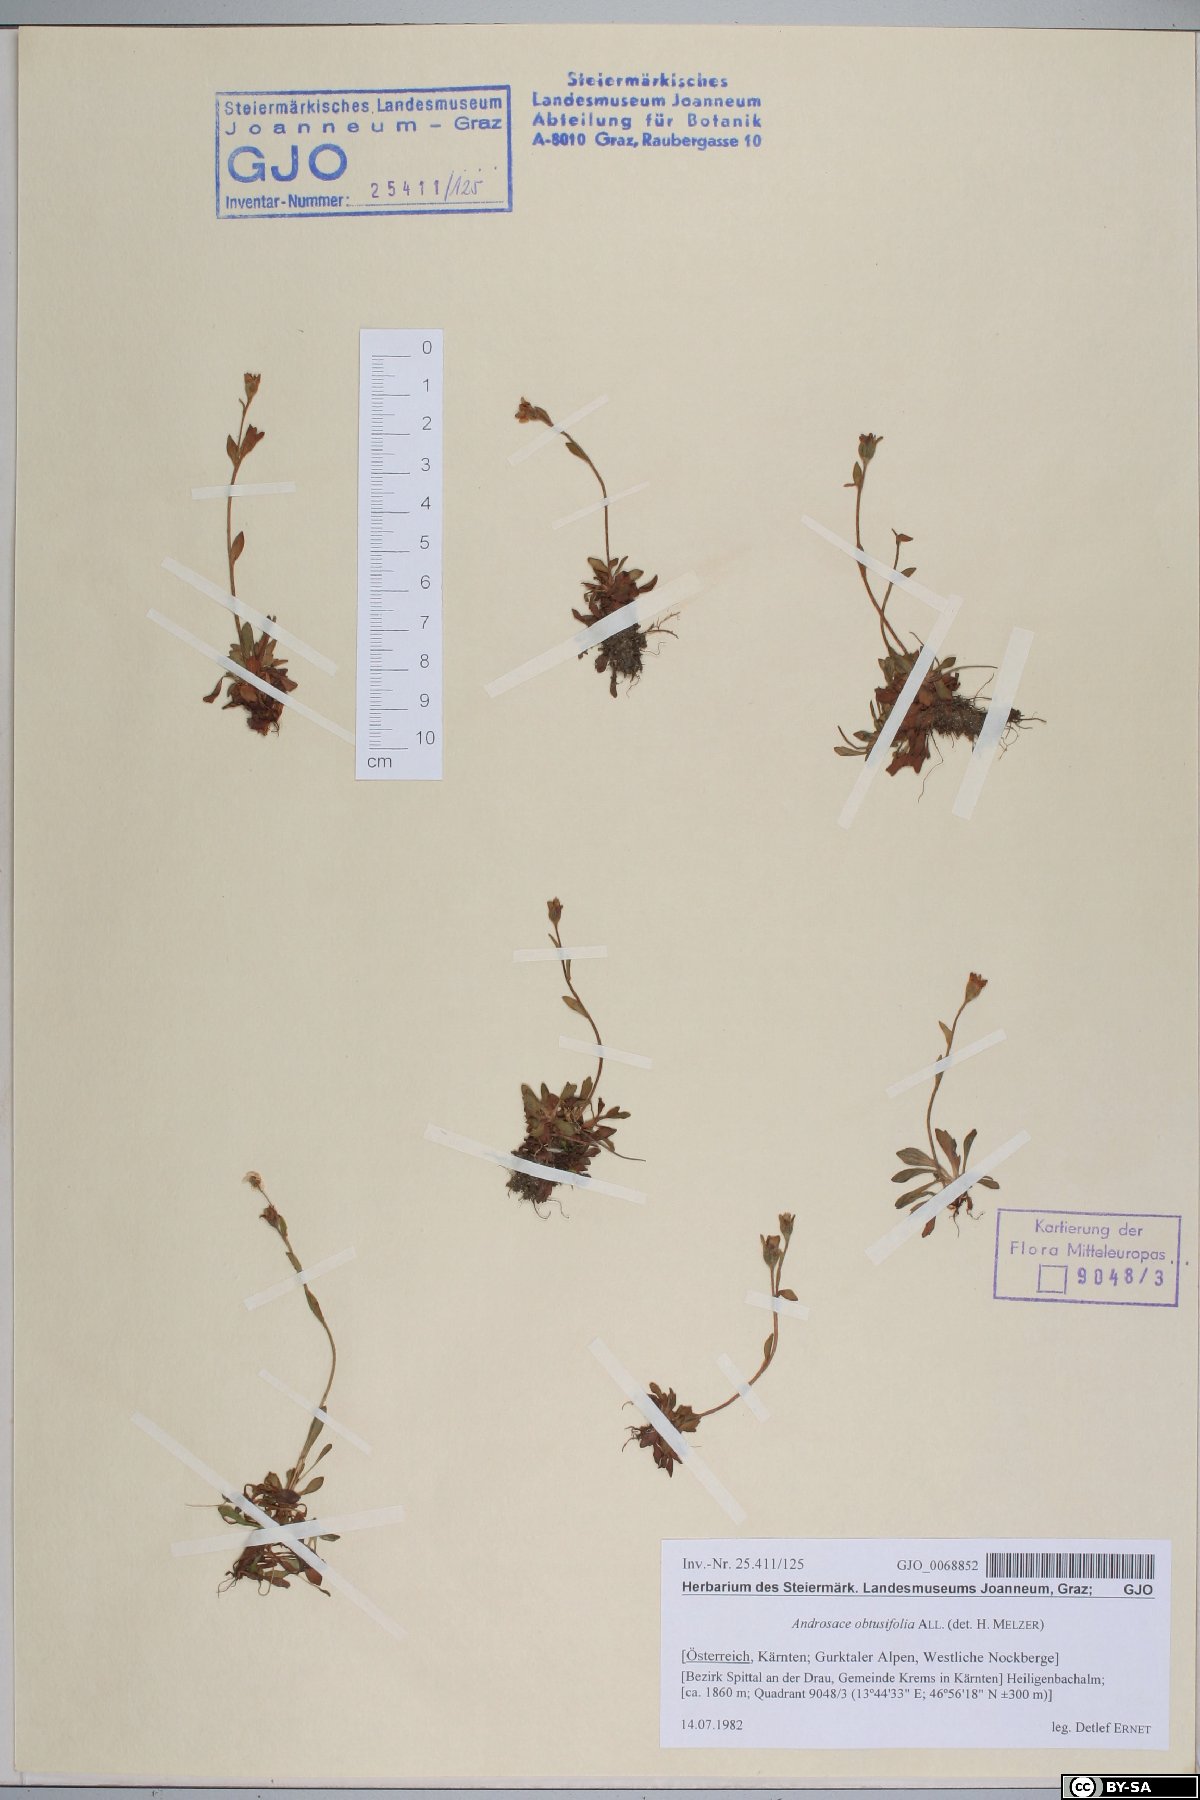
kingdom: Plantae
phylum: Tracheophyta
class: Magnoliopsida
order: Ericales
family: Primulaceae
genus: Androsace
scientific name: Androsace obtusifolia
